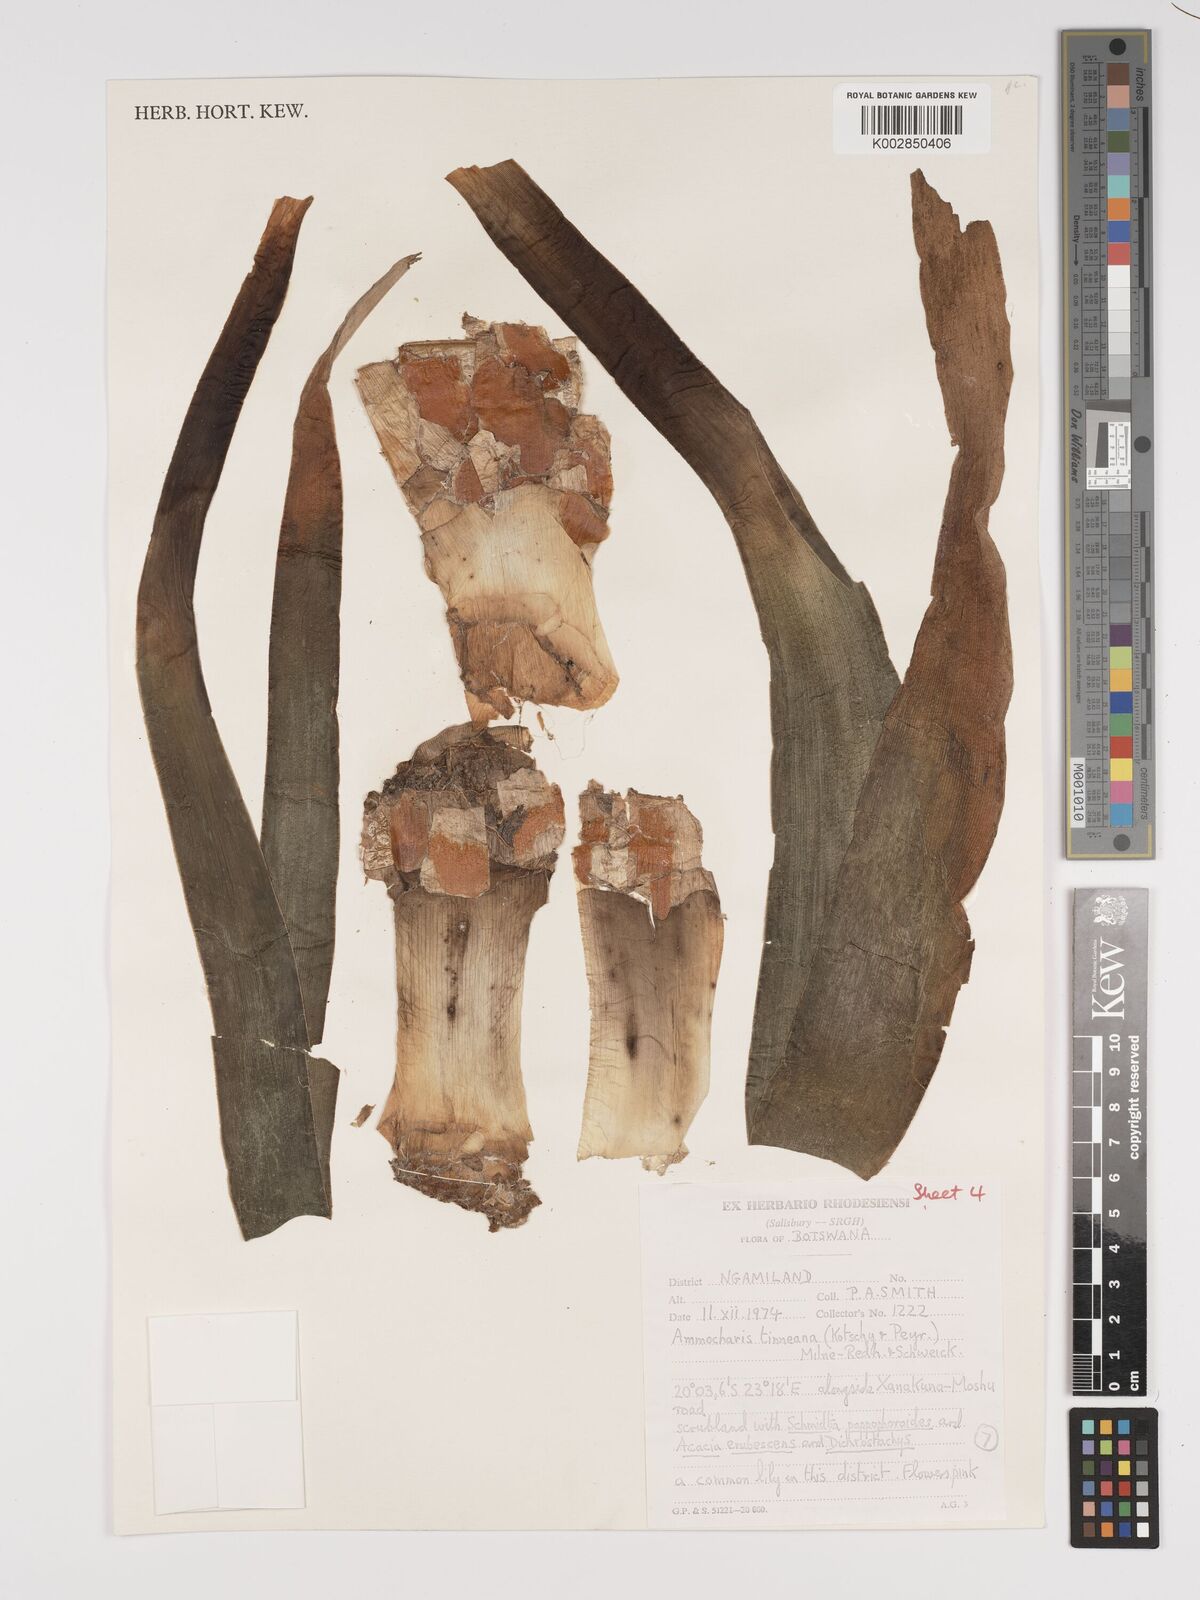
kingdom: Plantae
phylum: Tracheophyta
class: Liliopsida
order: Asparagales
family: Amaryllidaceae
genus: Ammocharis
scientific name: Ammocharis tinneana
